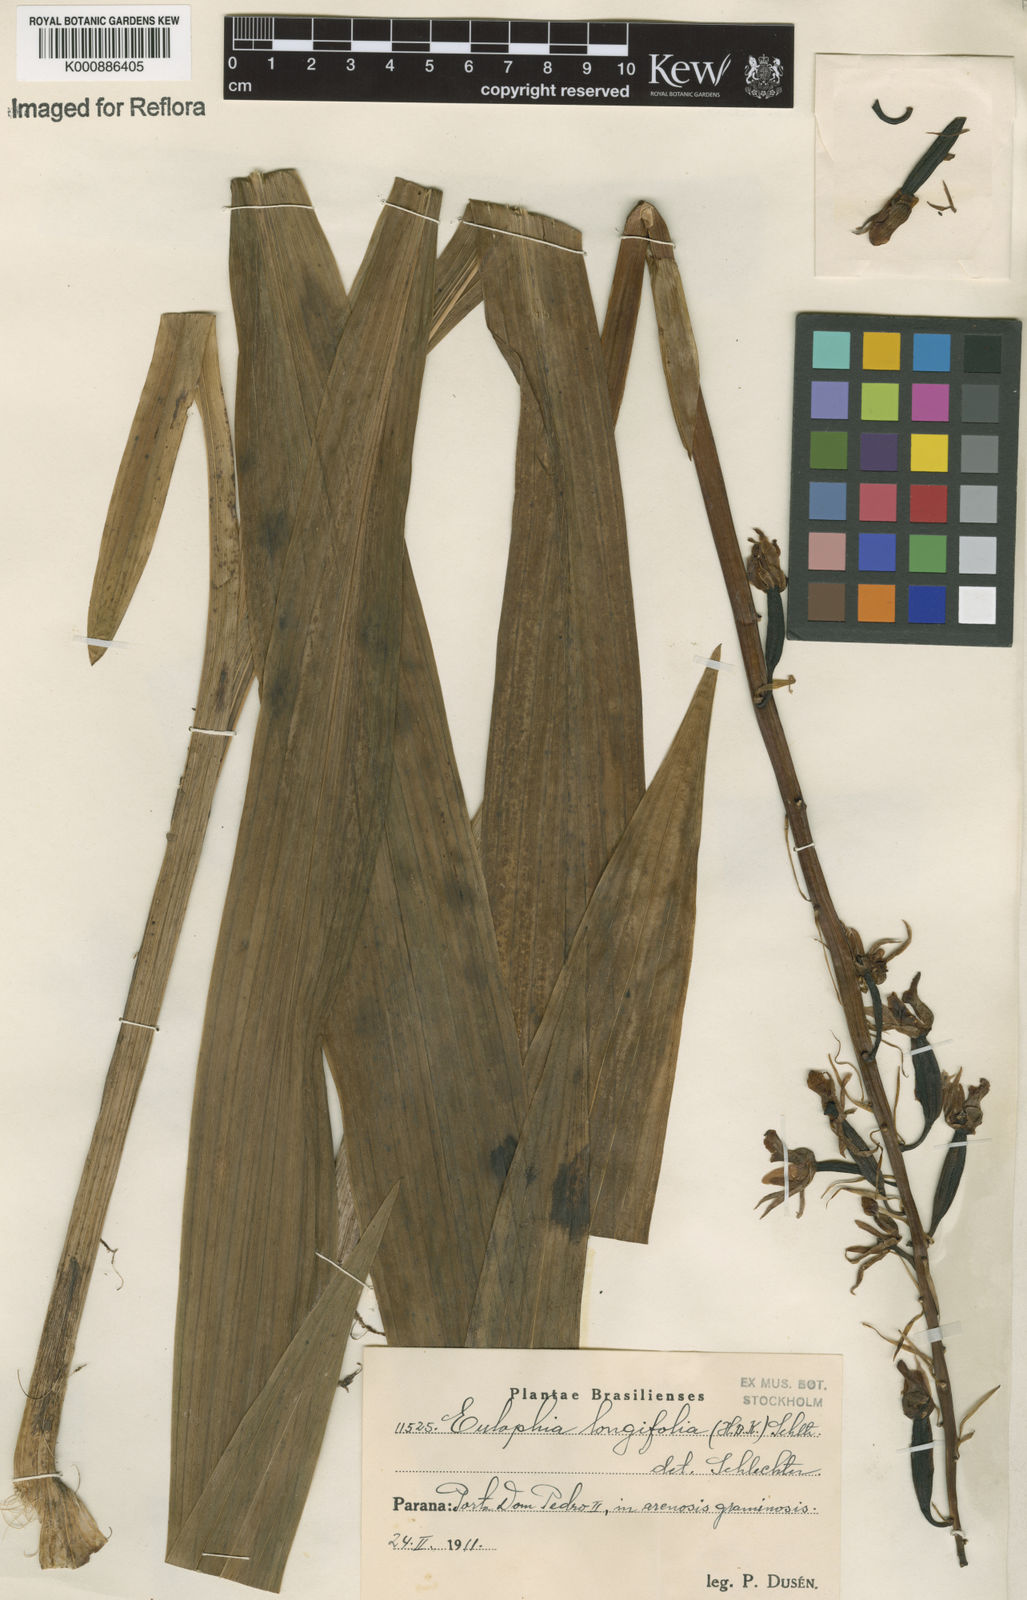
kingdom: Plantae
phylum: Tracheophyta
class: Liliopsida
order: Asparagales
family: Orchidaceae
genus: Eulophia
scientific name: Eulophia alta
